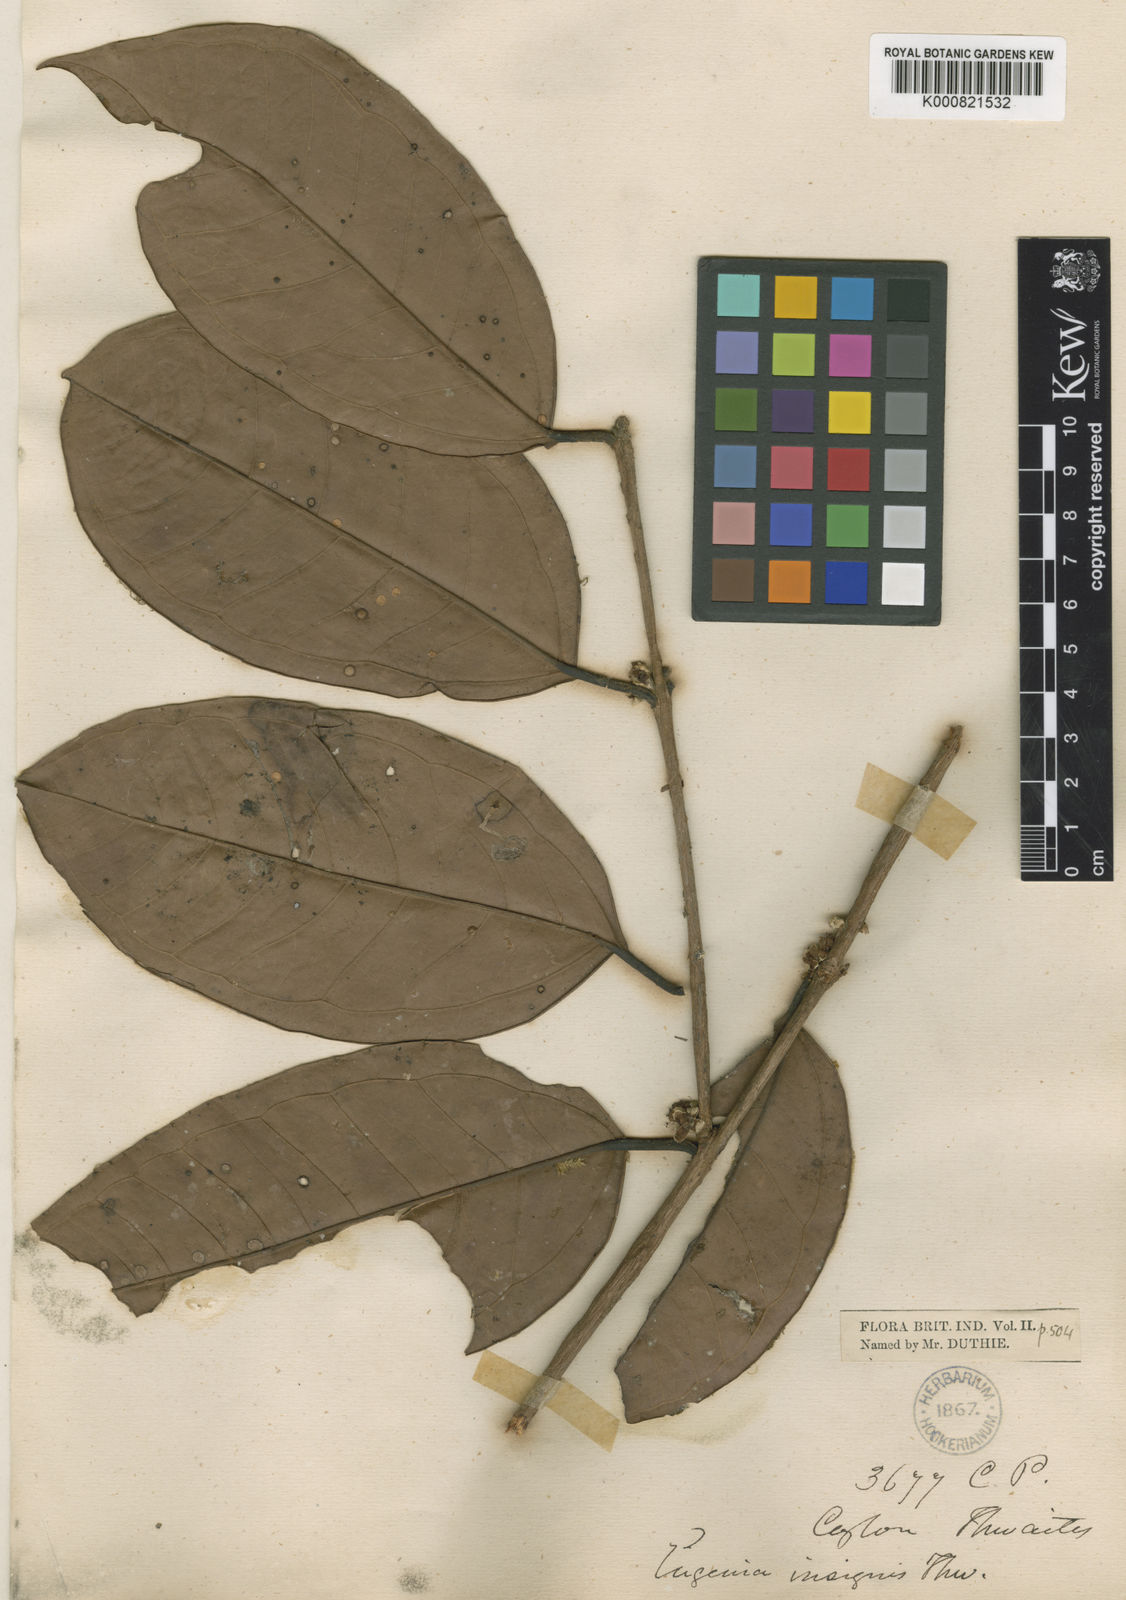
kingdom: Plantae
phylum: Tracheophyta
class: Magnoliopsida
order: Myrtales
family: Myrtaceae
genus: Eugenia
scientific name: Eugenia fulva
